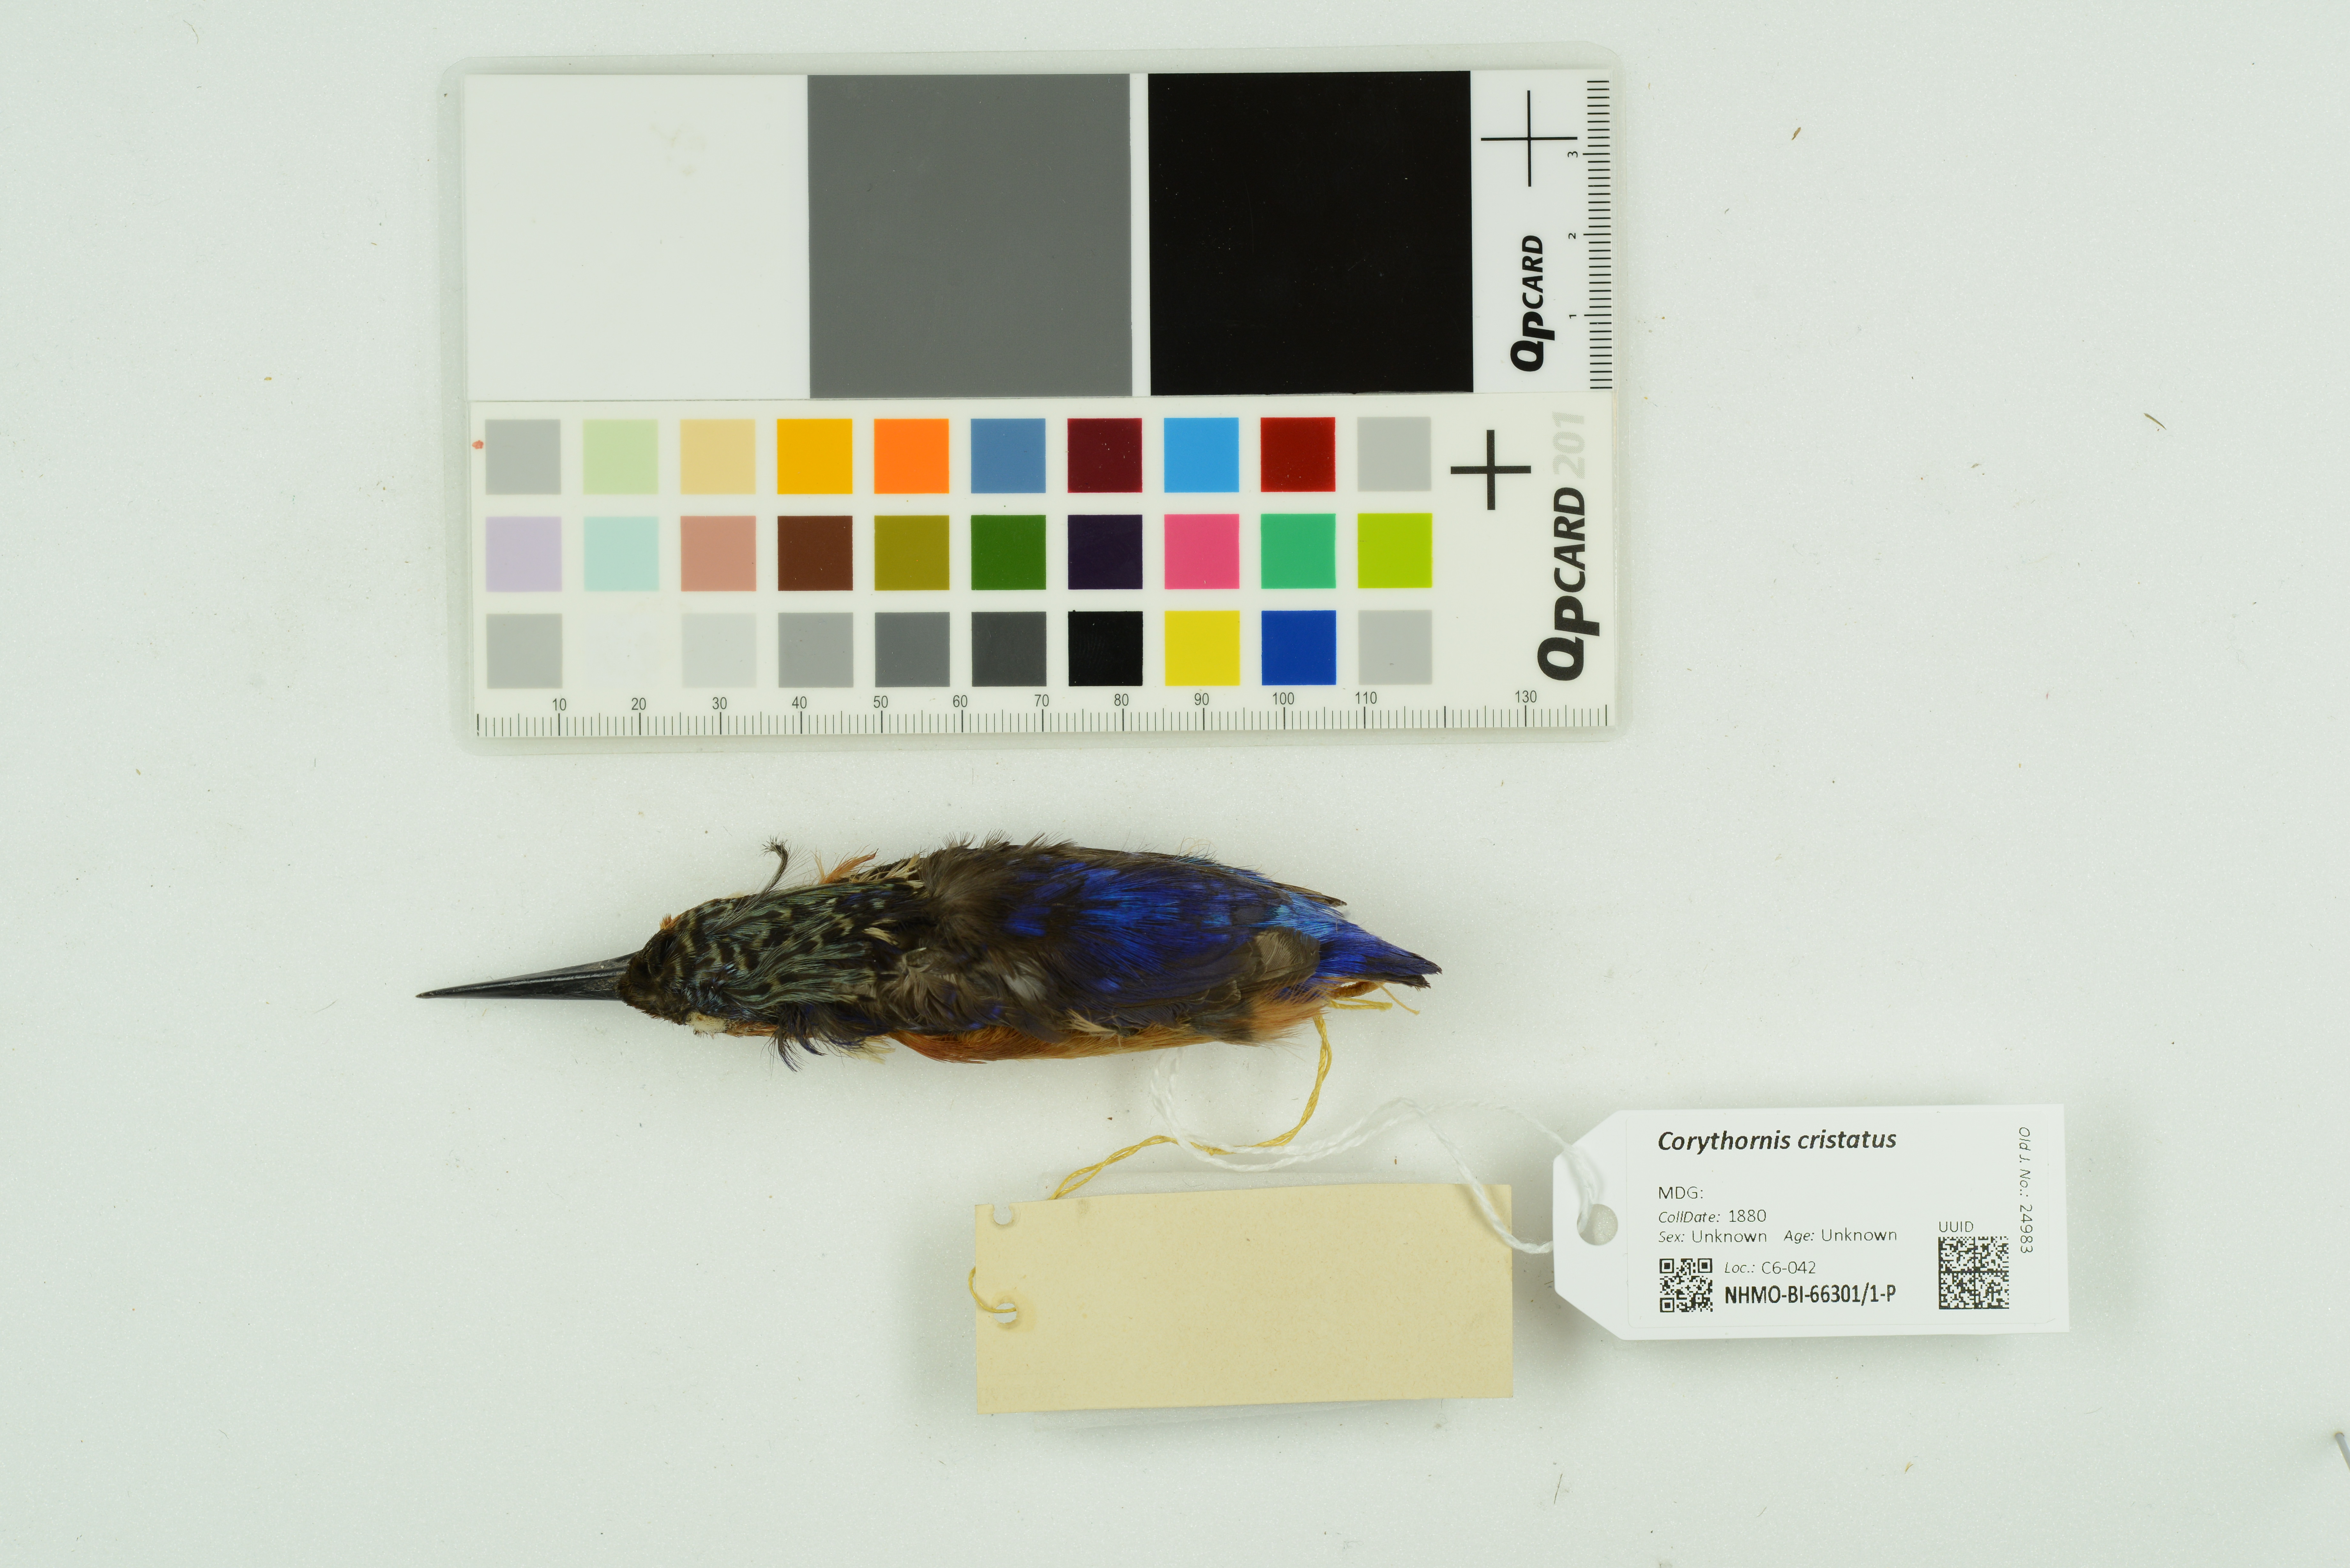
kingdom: Animalia
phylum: Chordata
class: Aves
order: Coraciiformes
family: Alcedinidae
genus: Corythornis
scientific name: Corythornis cristatus
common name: Malachite kingfisher
